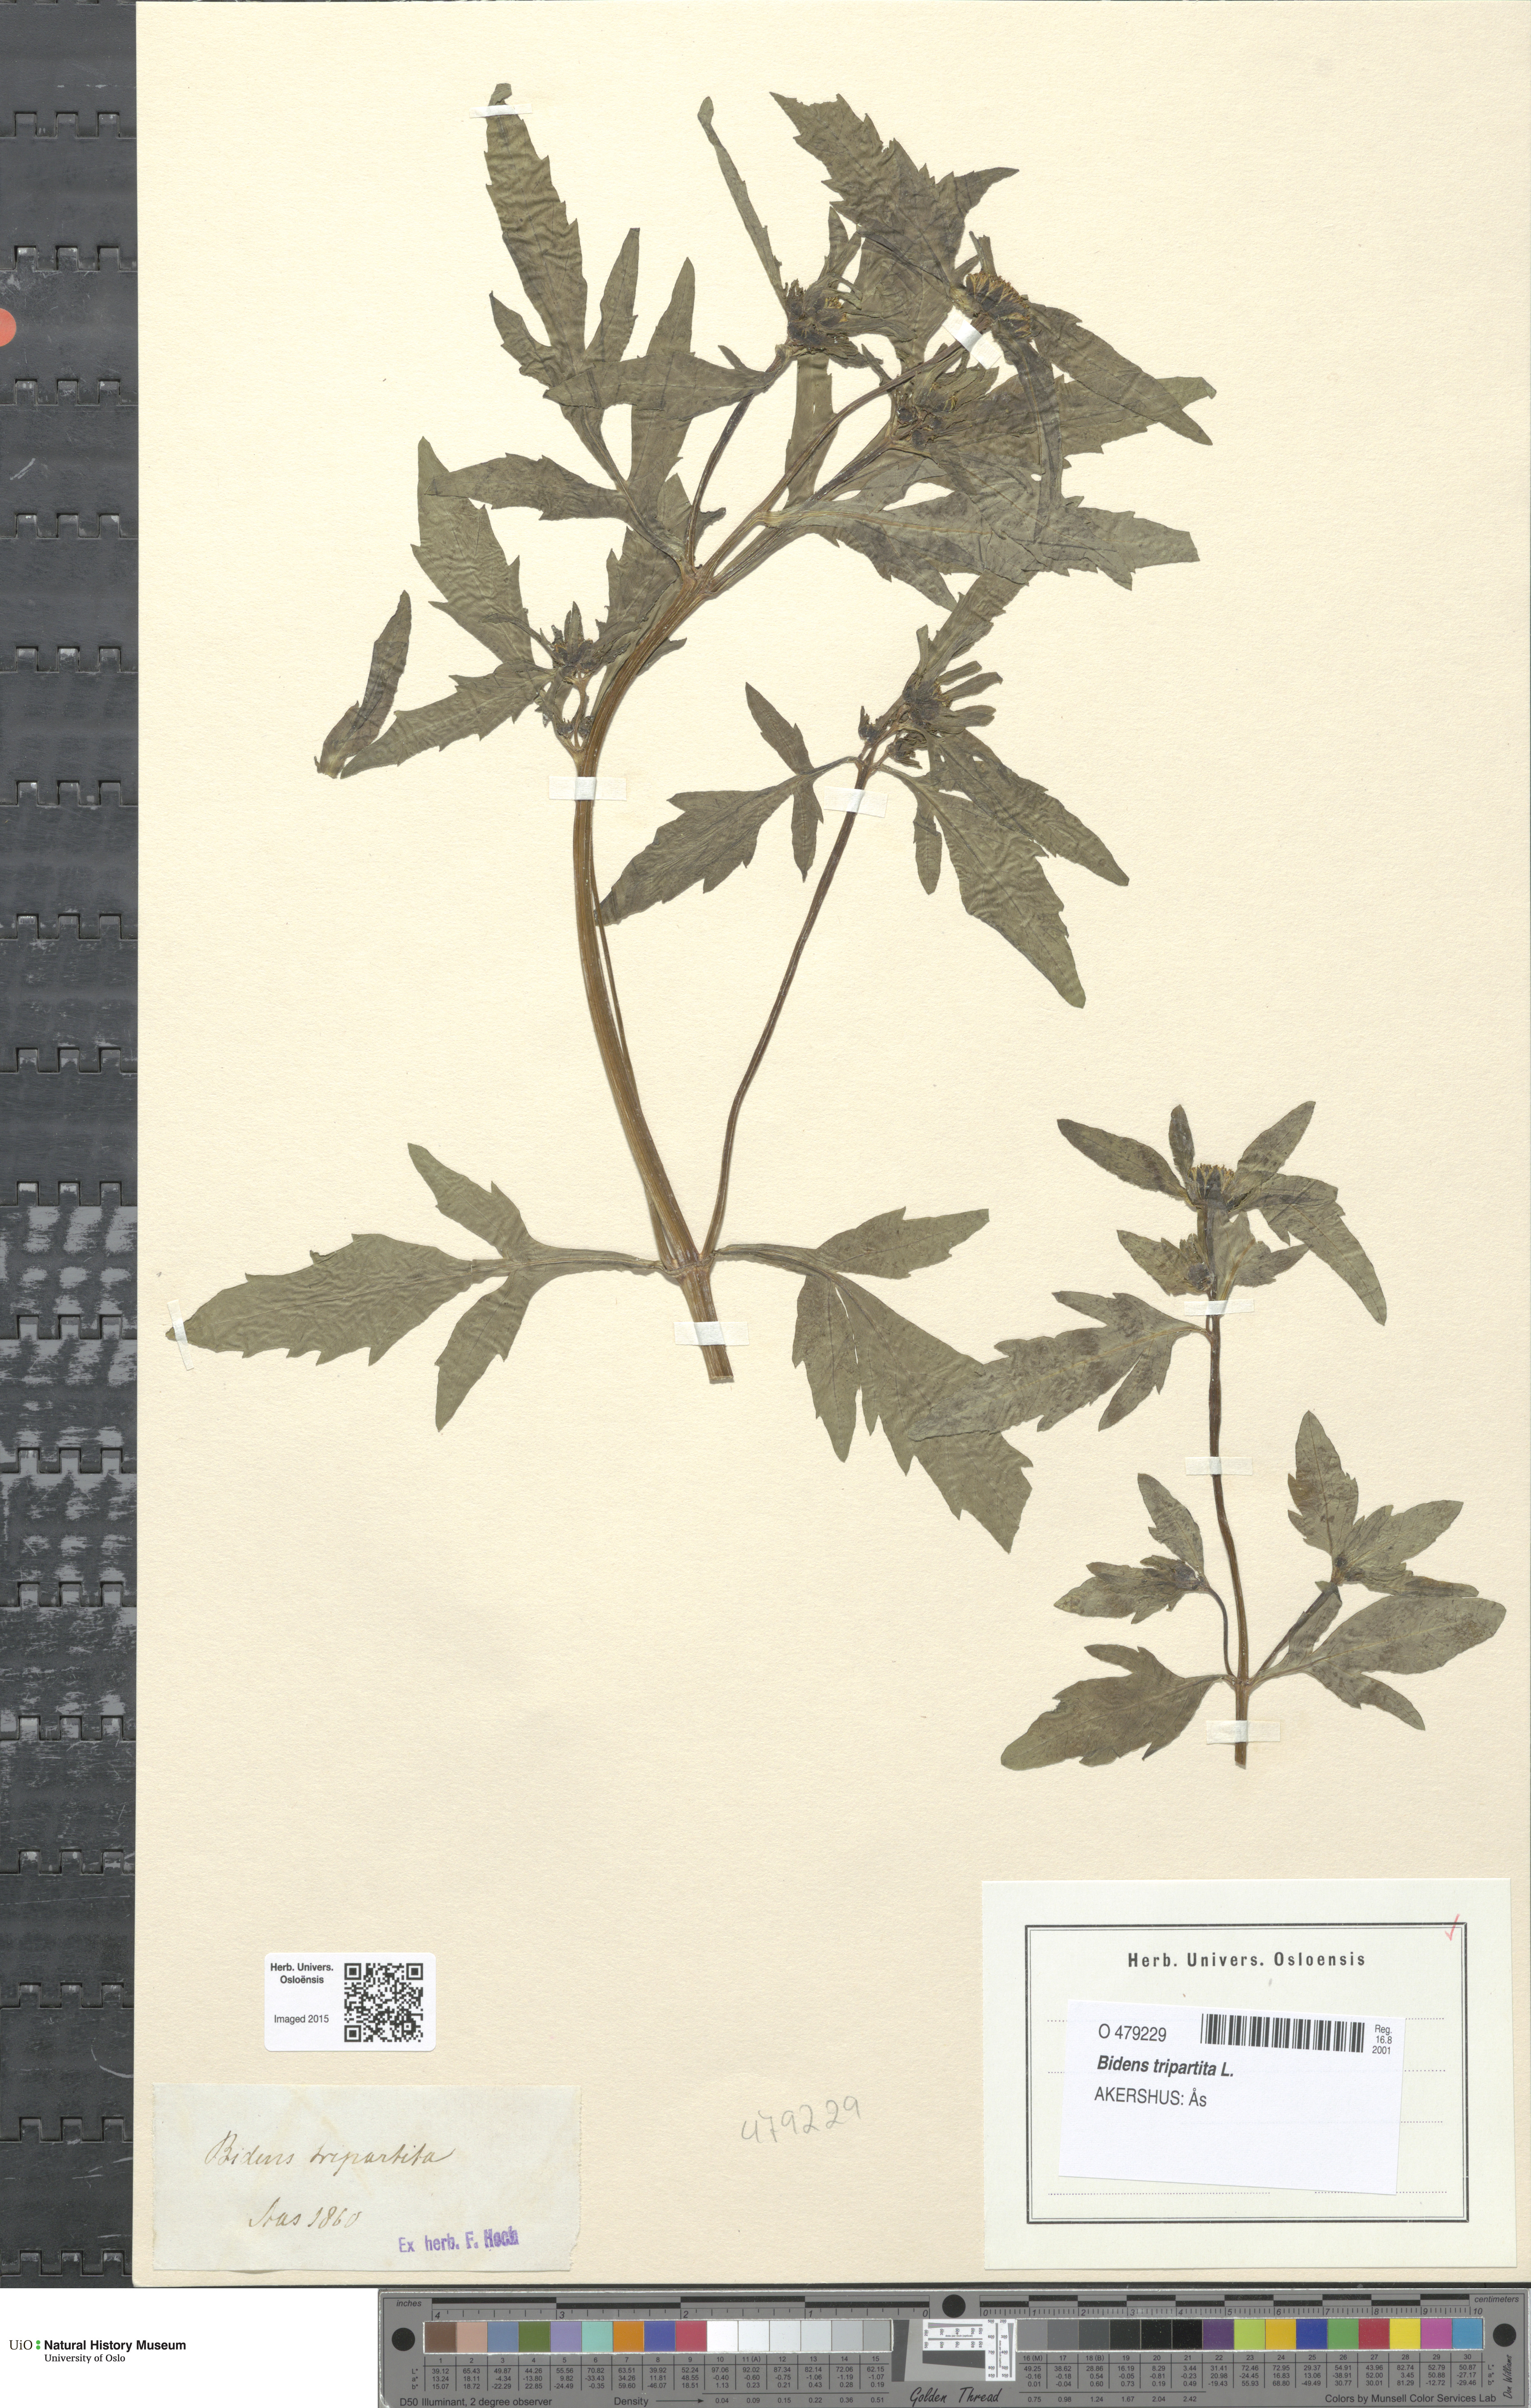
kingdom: Plantae
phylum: Tracheophyta
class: Magnoliopsida
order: Asterales
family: Asteraceae
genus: Bidens
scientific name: Bidens tripartita
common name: Trifid bur-marigold
